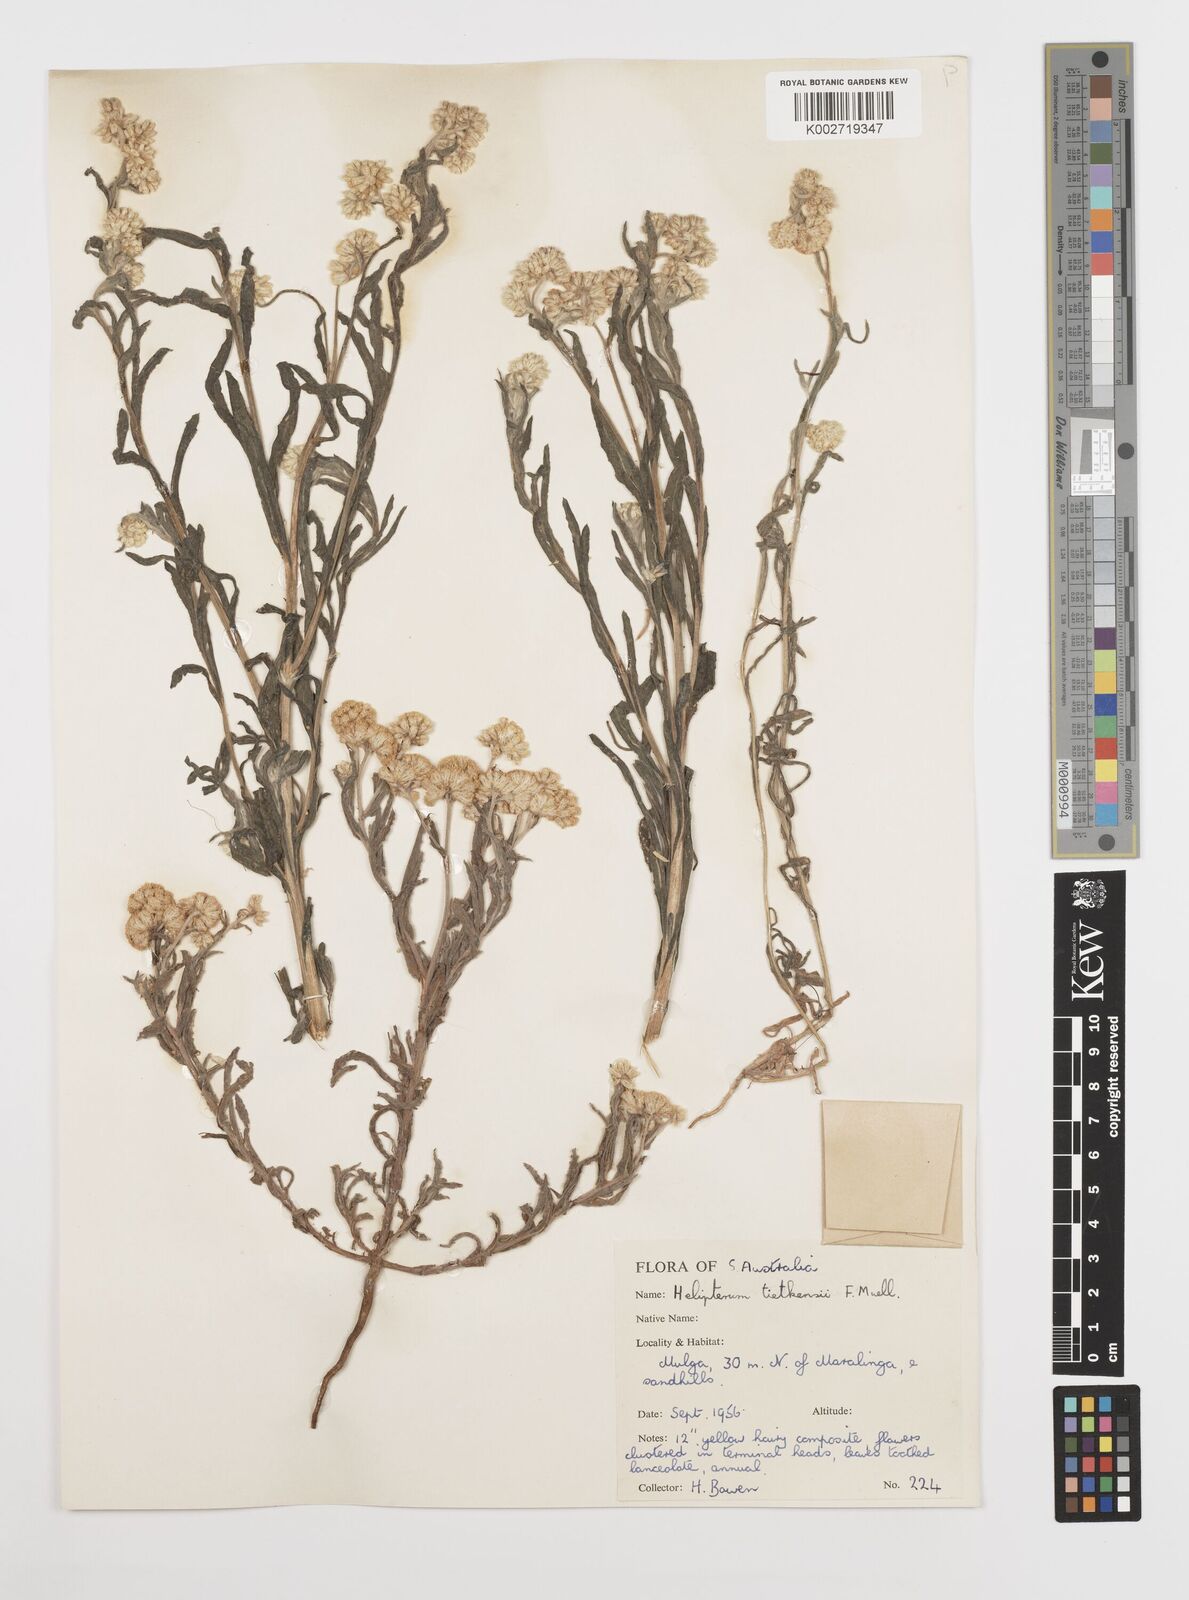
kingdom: Plantae
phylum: Tracheophyta
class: Magnoliopsida
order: Asterales
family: Asteraceae
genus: Rhodanthe
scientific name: Rhodanthe tietkensii
